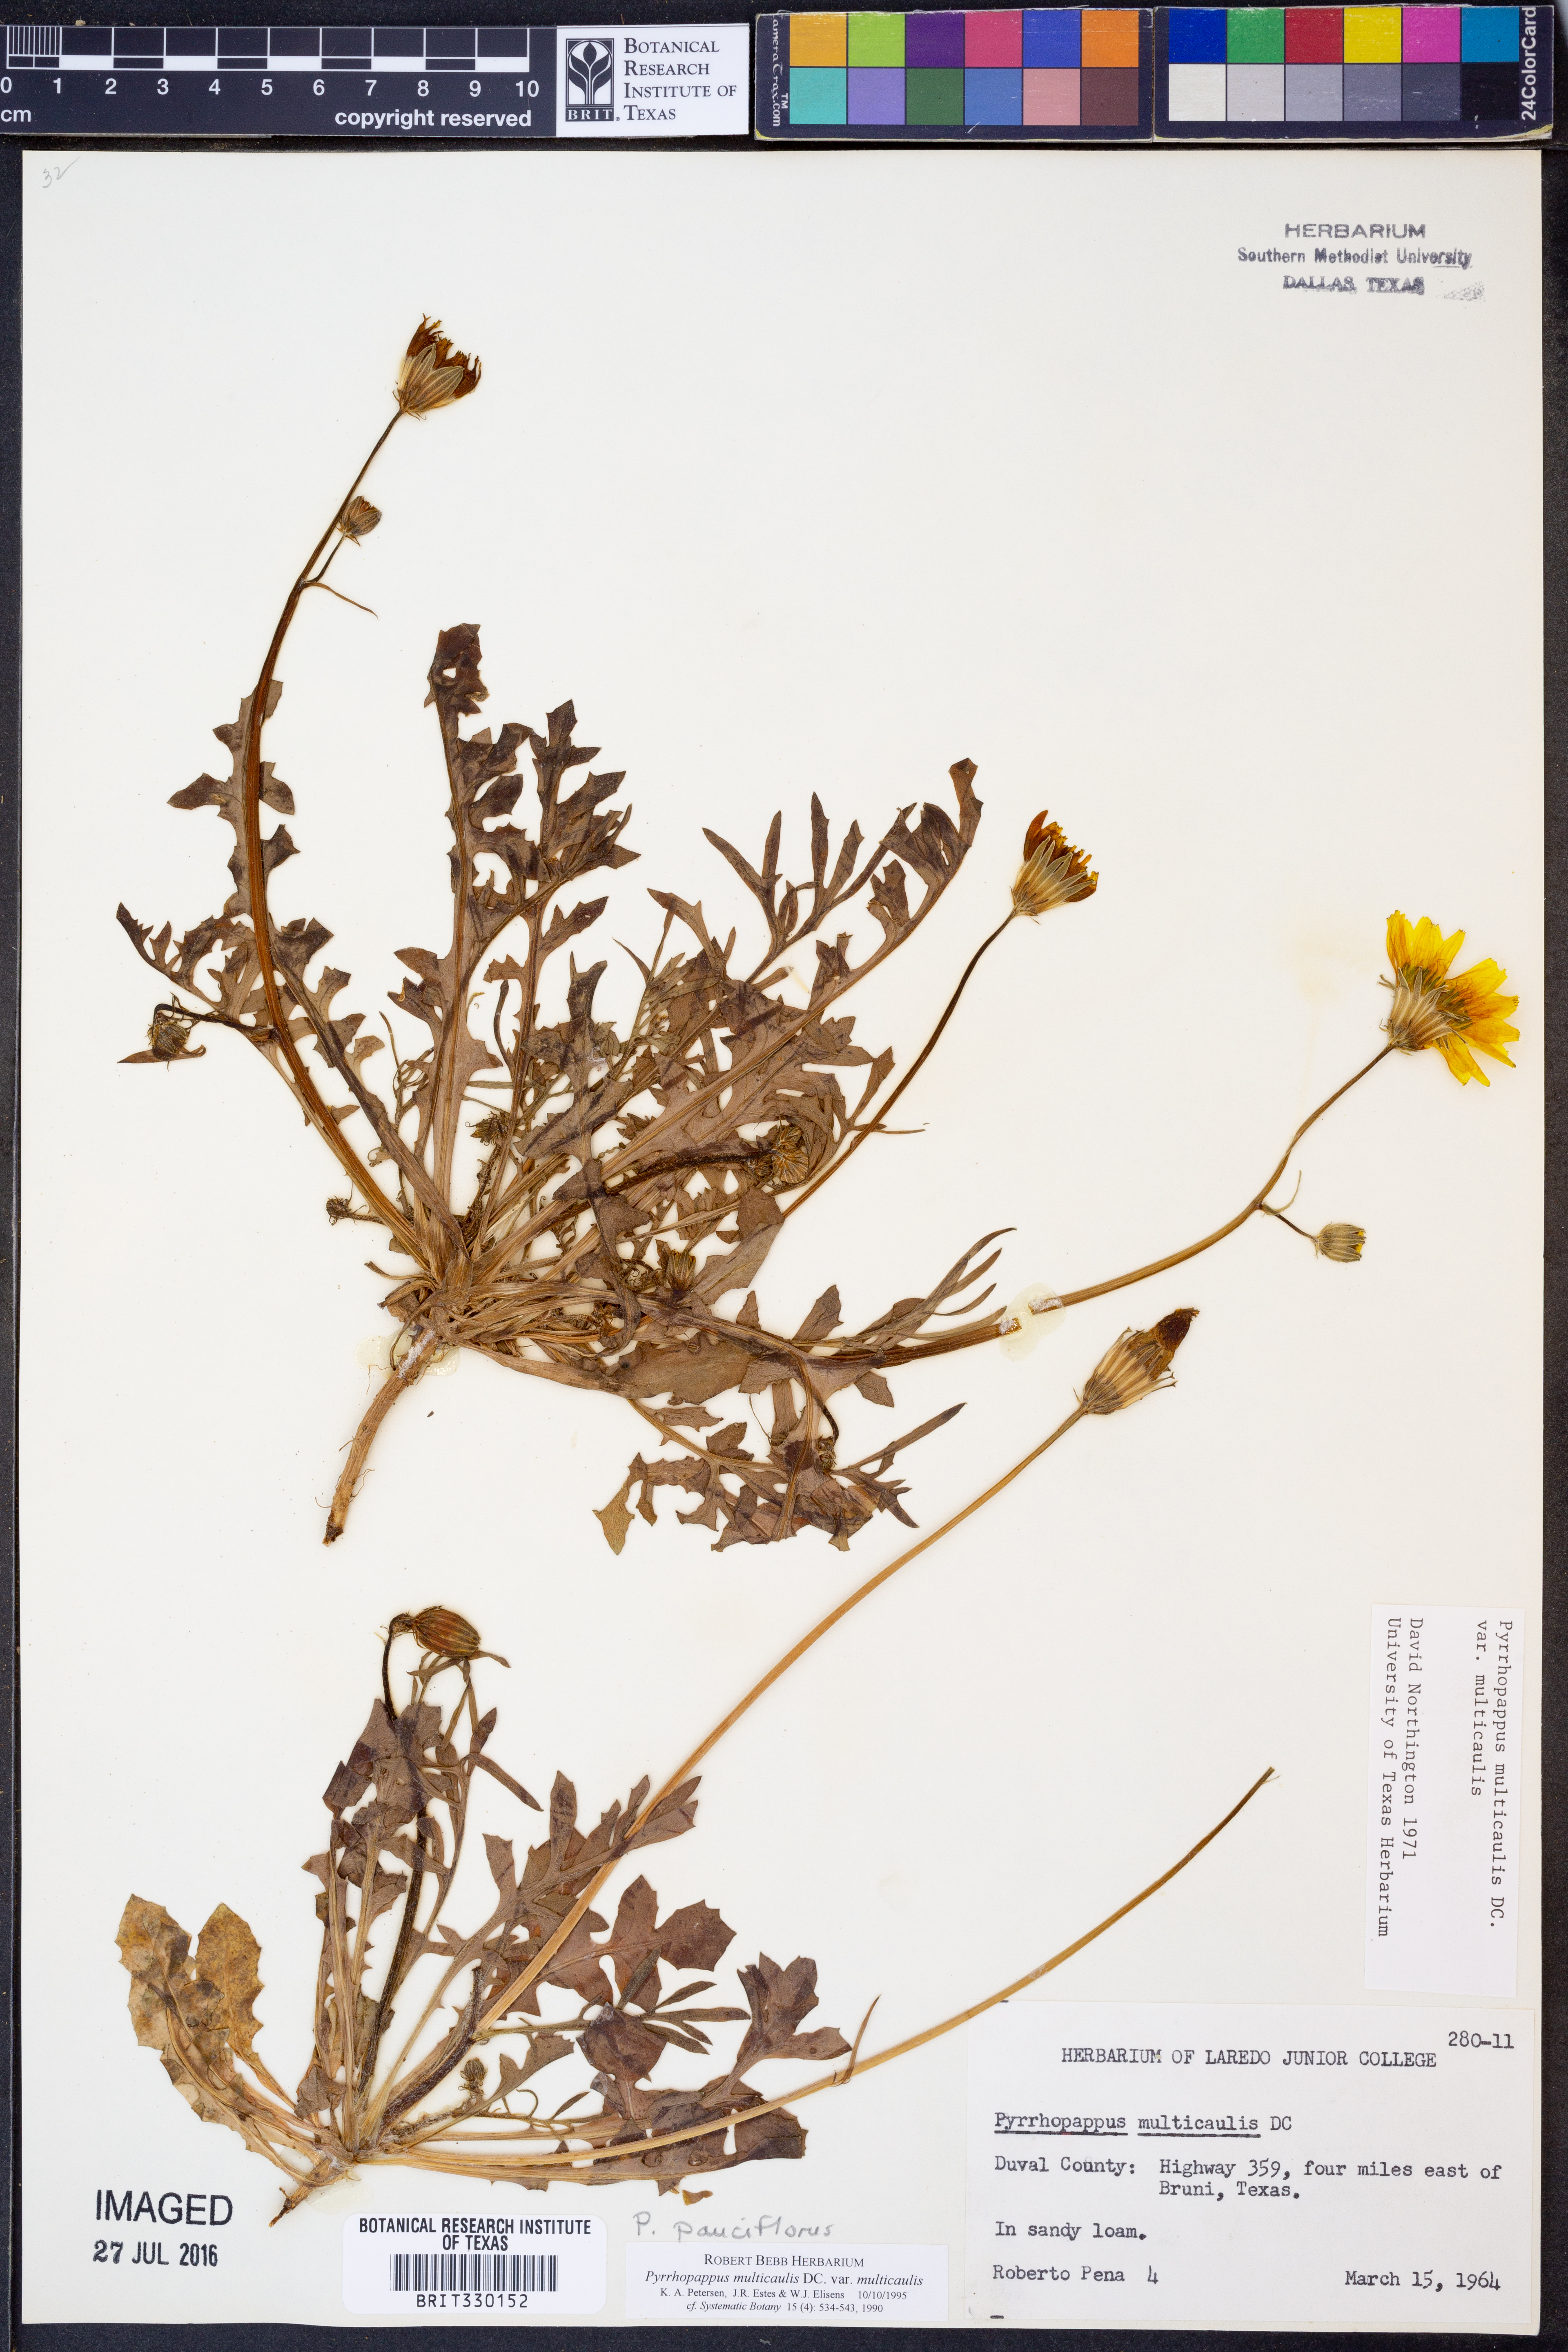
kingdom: Plantae
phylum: Tracheophyta
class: Magnoliopsida
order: Asterales
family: Asteraceae
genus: Pyrrhopappus
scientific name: Pyrrhopappus pauciflorus
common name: Texas false dandelion
